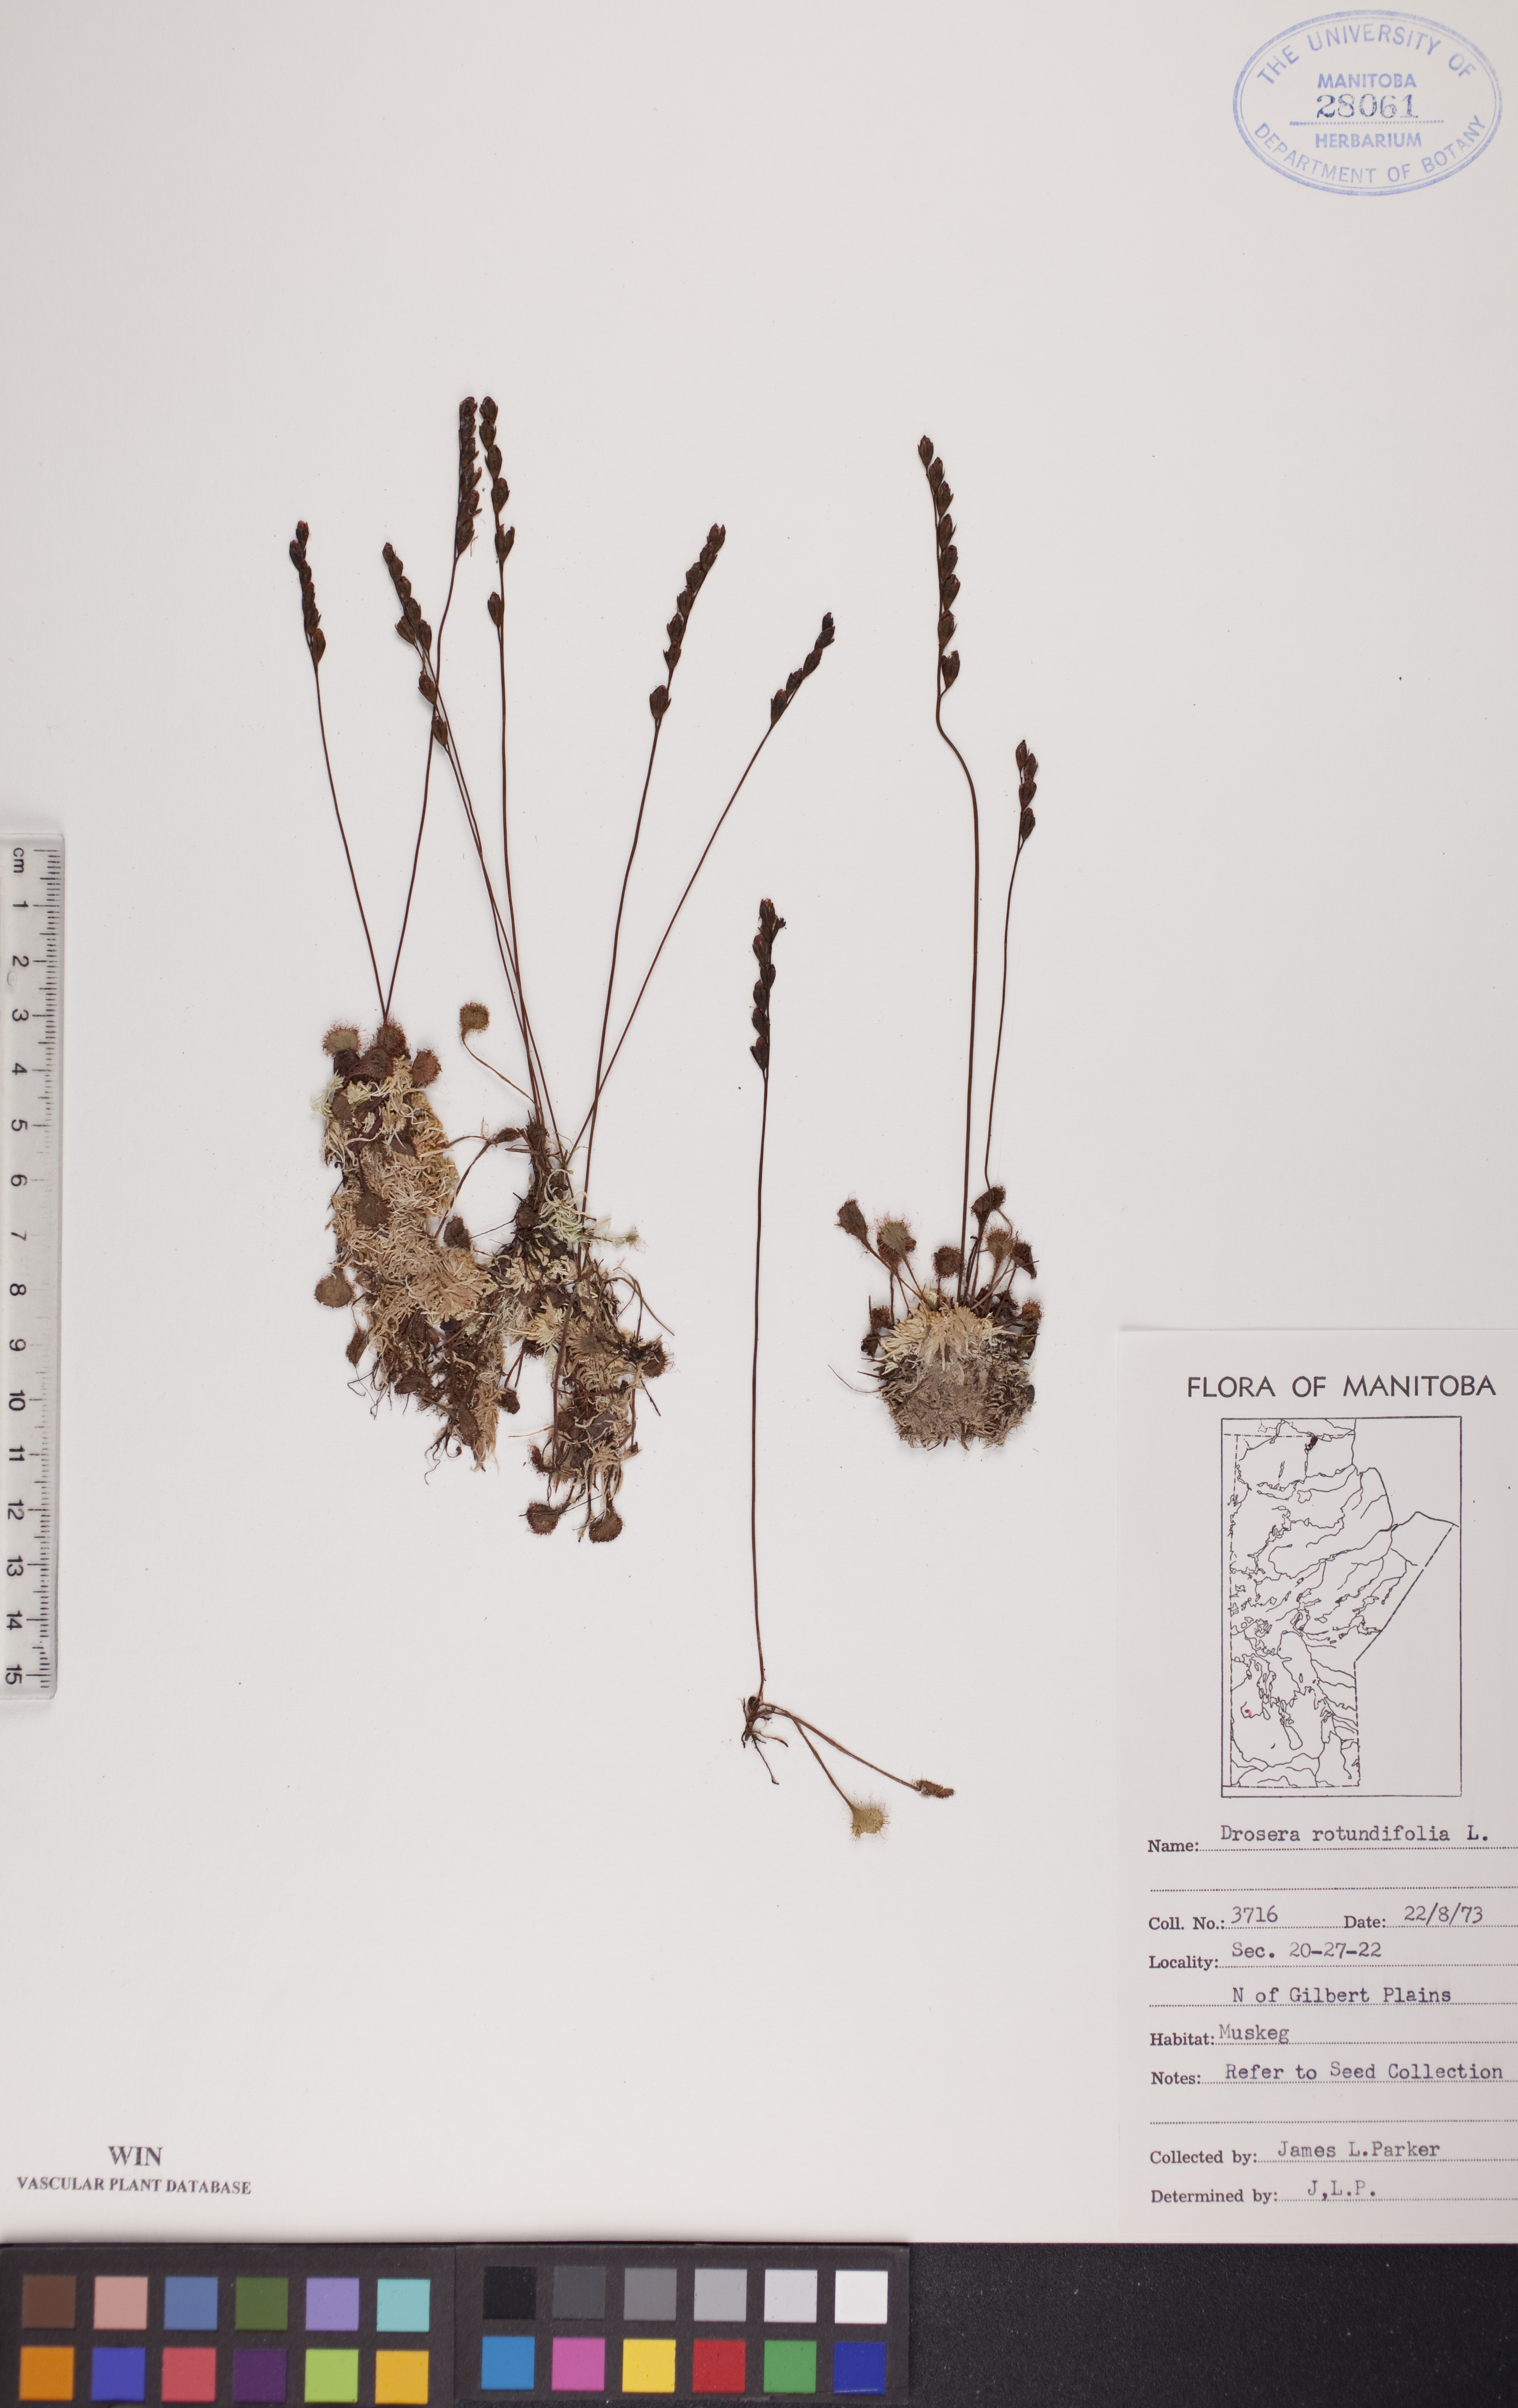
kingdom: Plantae
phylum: Tracheophyta
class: Magnoliopsida
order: Caryophyllales
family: Droseraceae
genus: Drosera
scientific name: Drosera rotundifolia
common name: Round-leaved sundew
